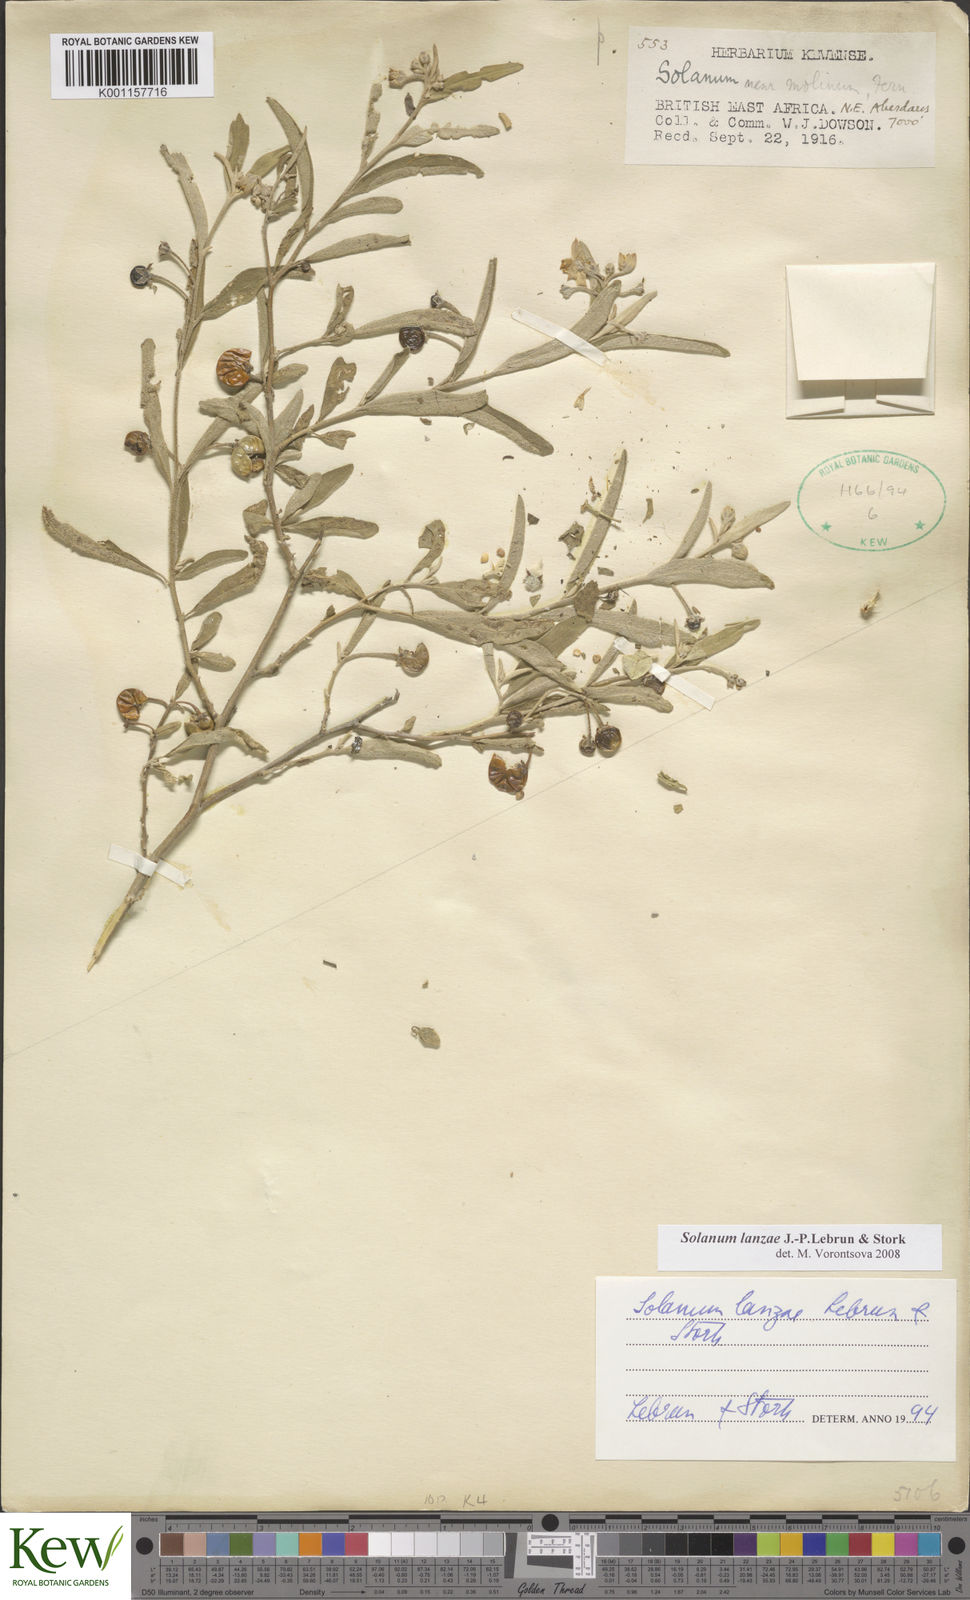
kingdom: Plantae
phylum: Tracheophyta
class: Magnoliopsida
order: Solanales
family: Solanaceae
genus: Solanum
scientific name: Solanum lanzae
